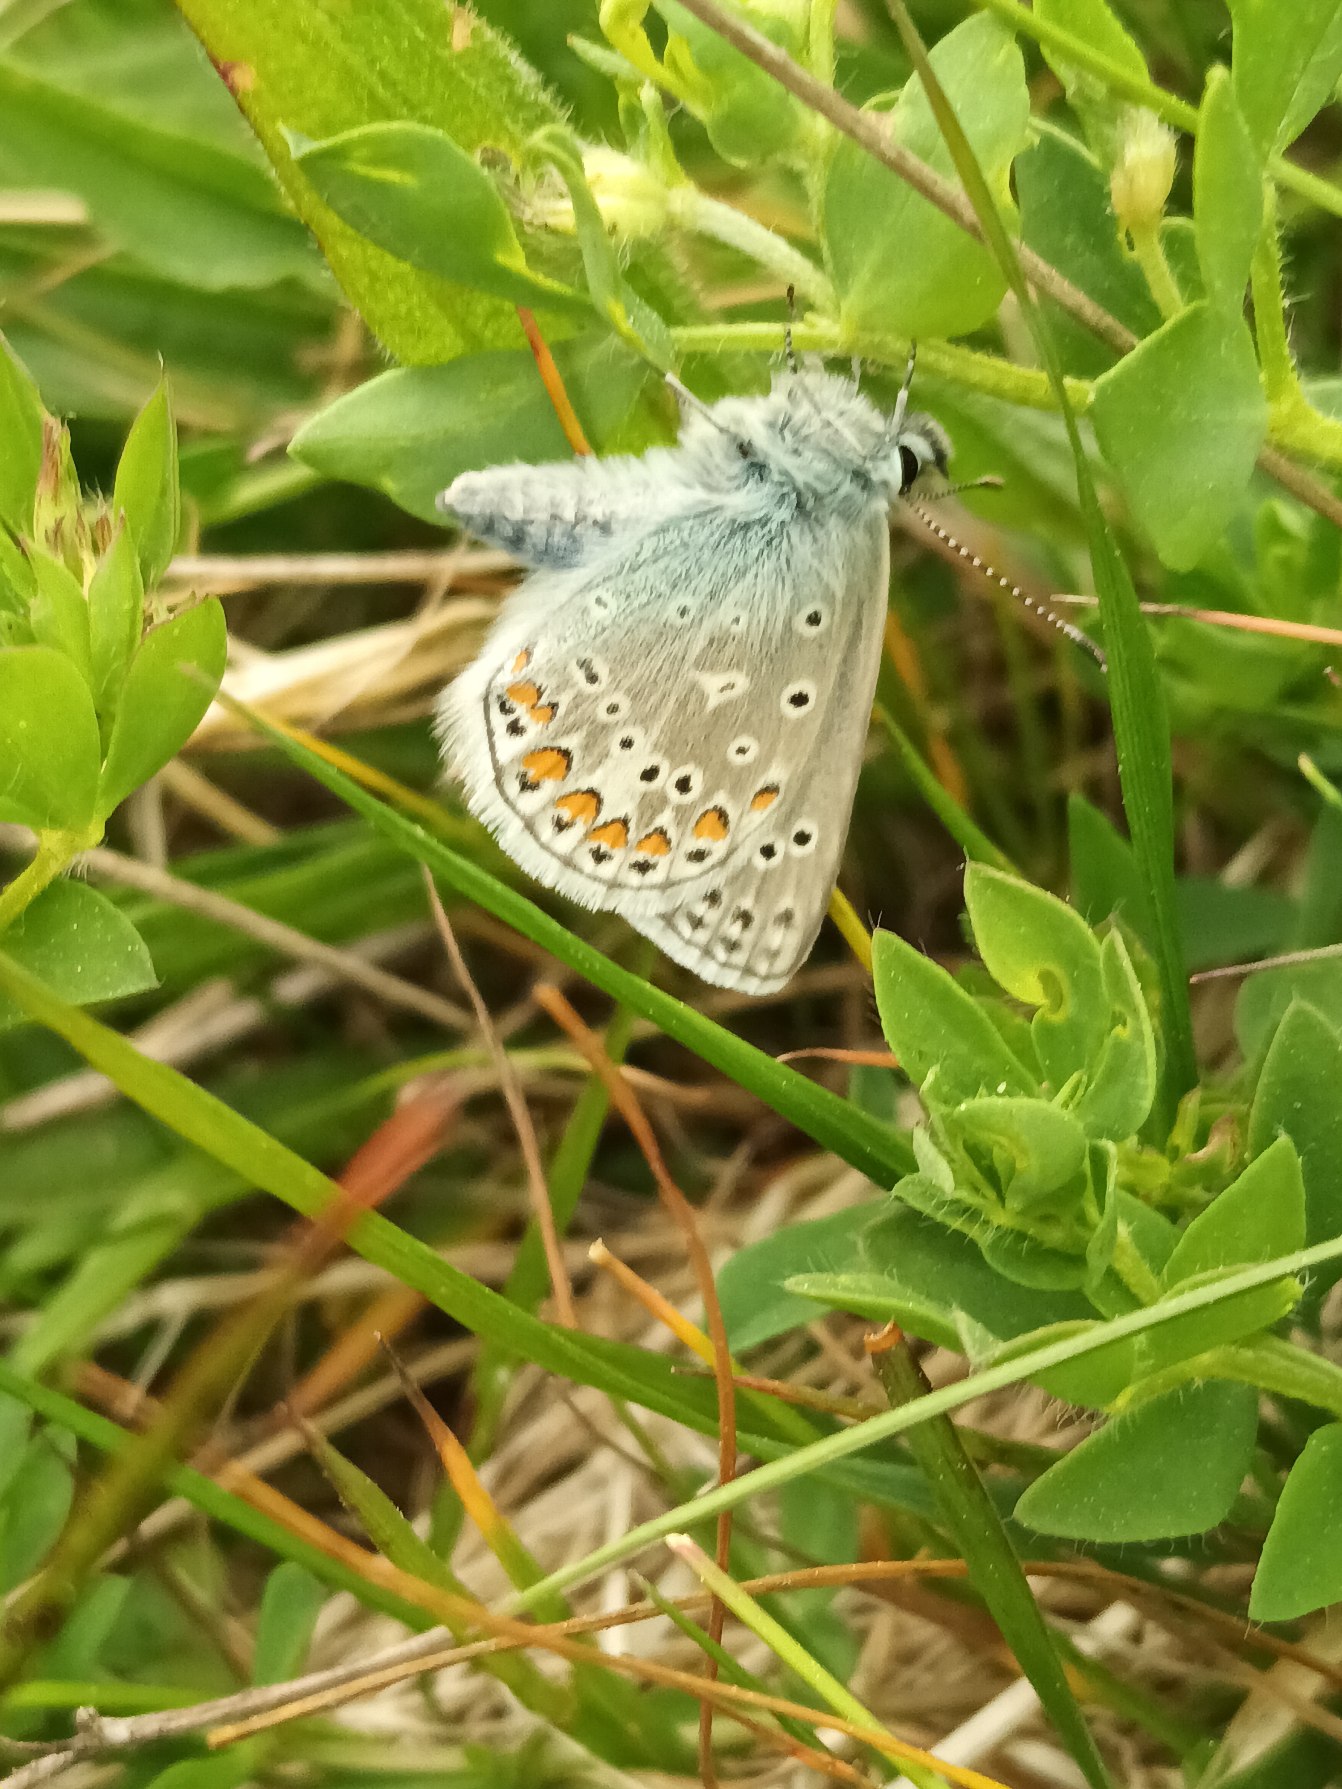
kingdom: Animalia
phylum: Arthropoda
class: Insecta
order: Lepidoptera
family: Lycaenidae
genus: Polyommatus
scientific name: Polyommatus icarus
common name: Almindelig blåfugl
